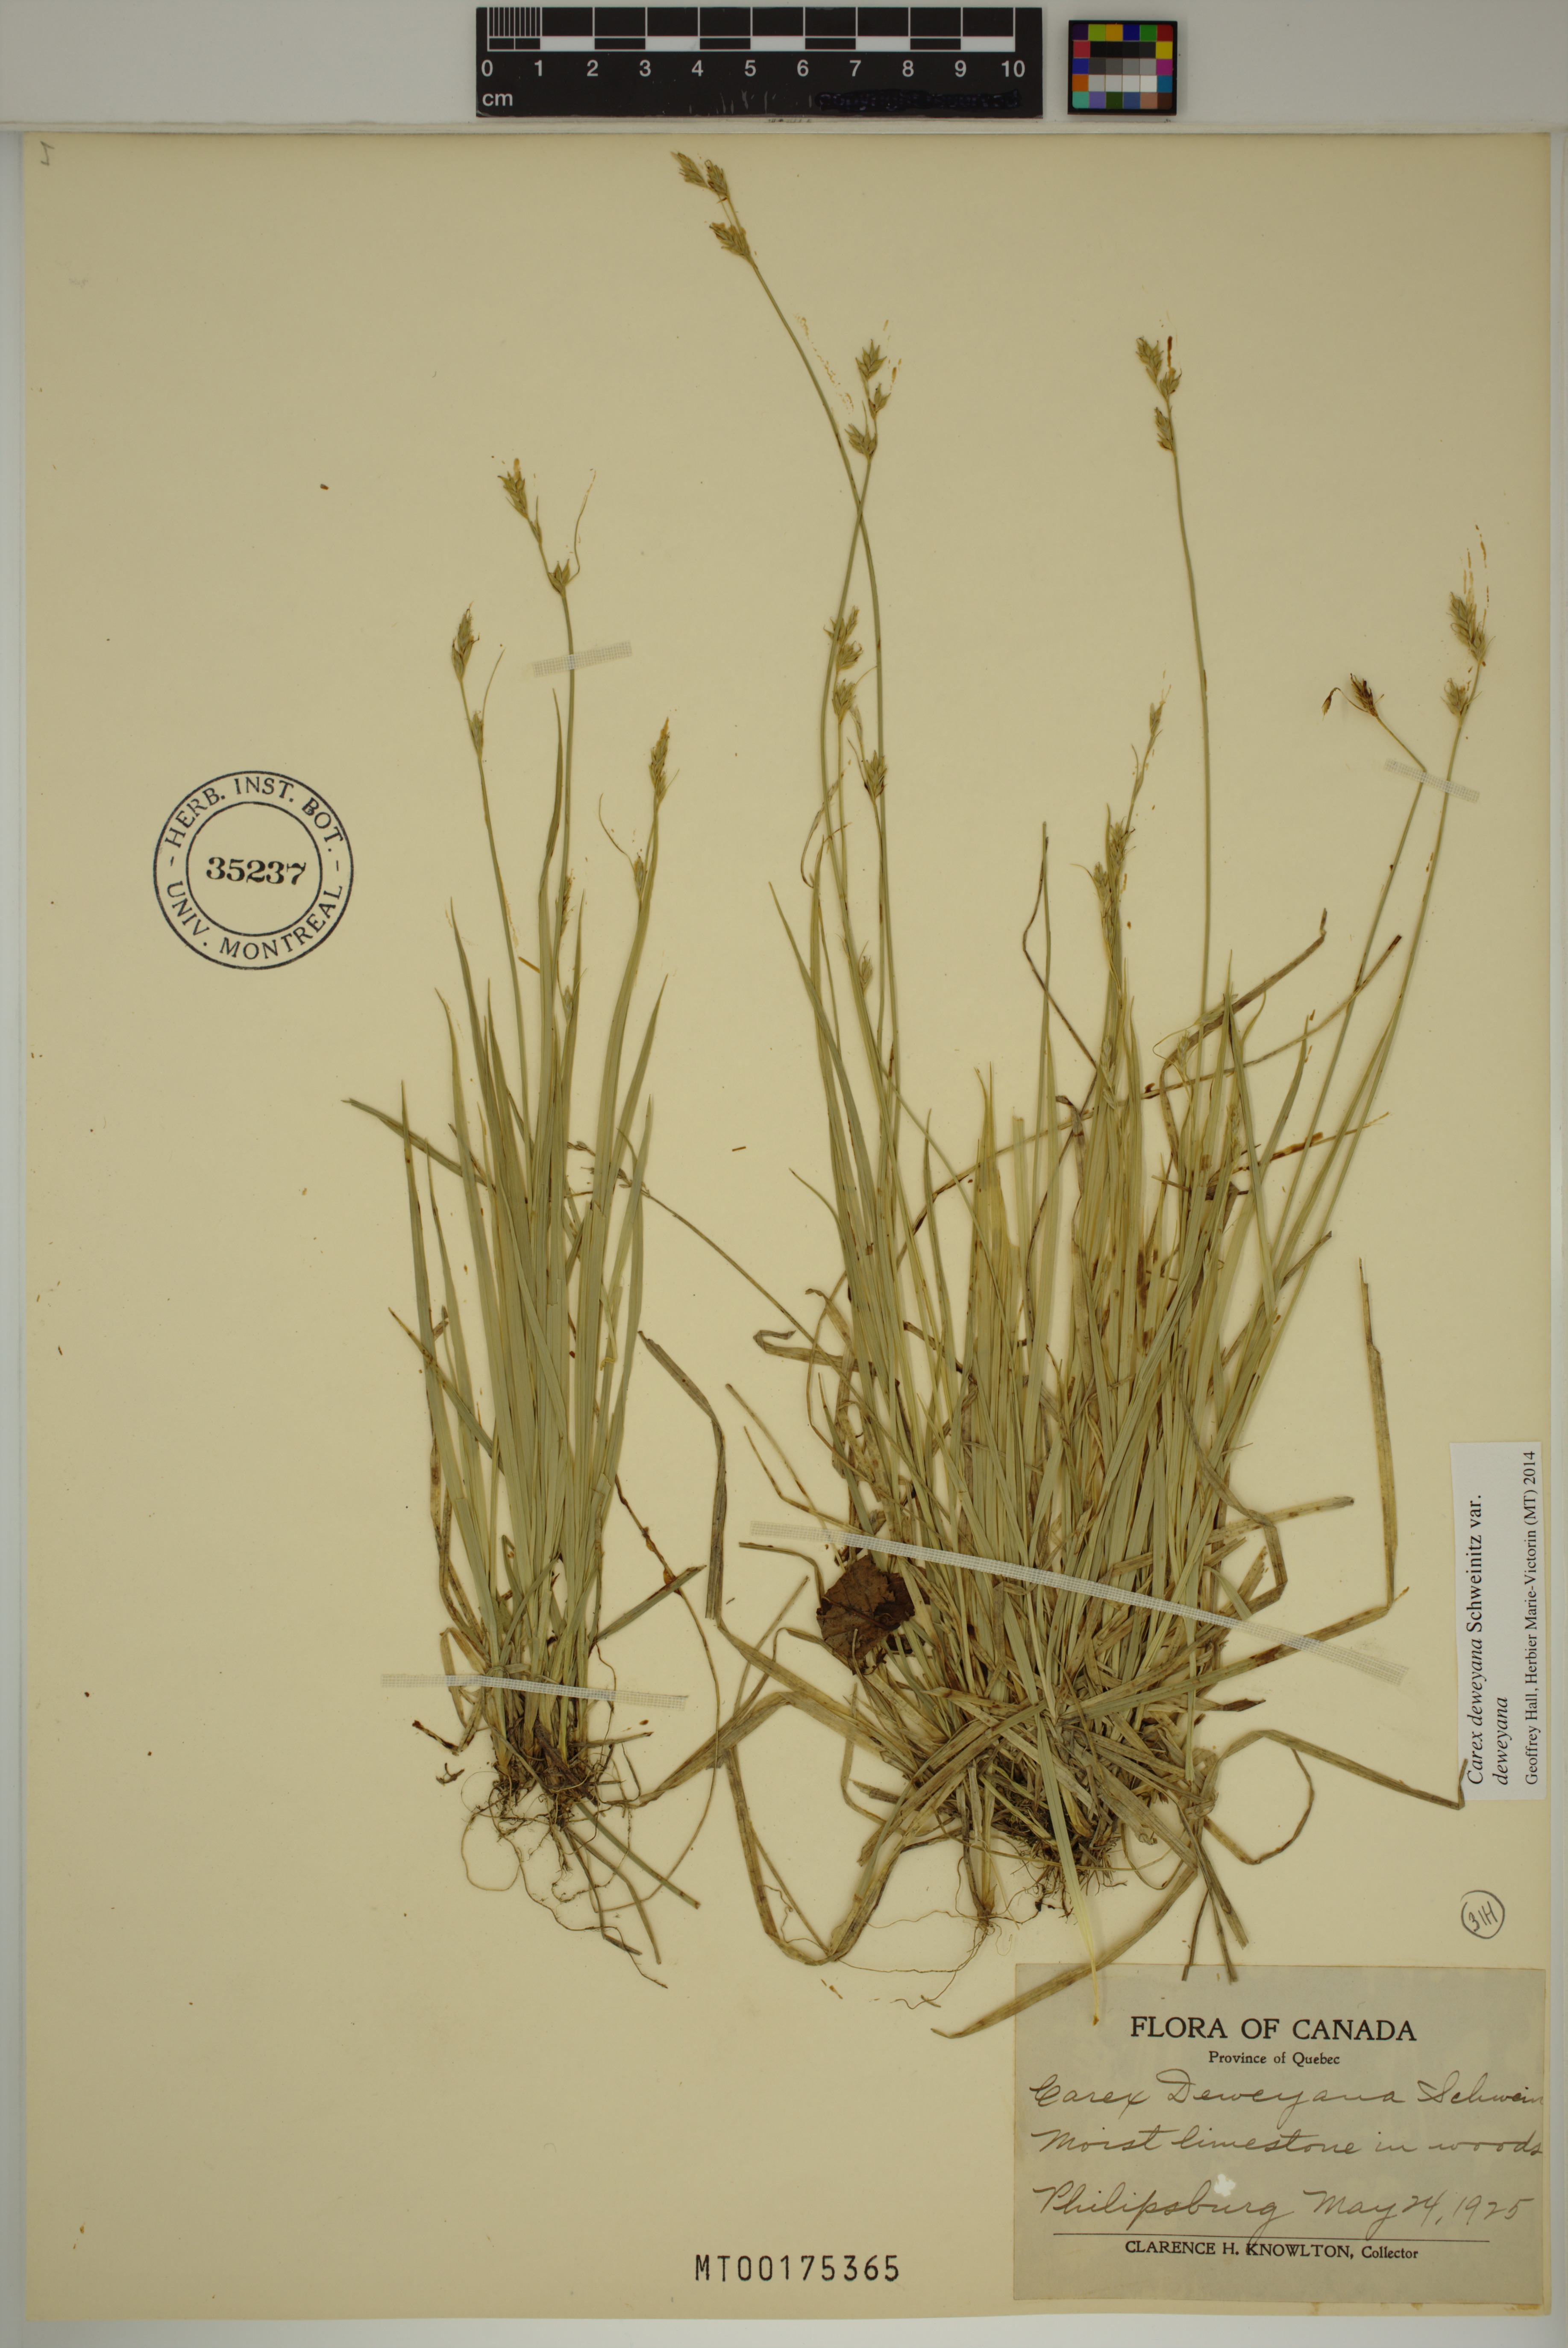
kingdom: Plantae
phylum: Tracheophyta
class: Liliopsida
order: Poales
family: Cyperaceae
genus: Carex
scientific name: Carex deweyana
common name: Dewey's sedge
